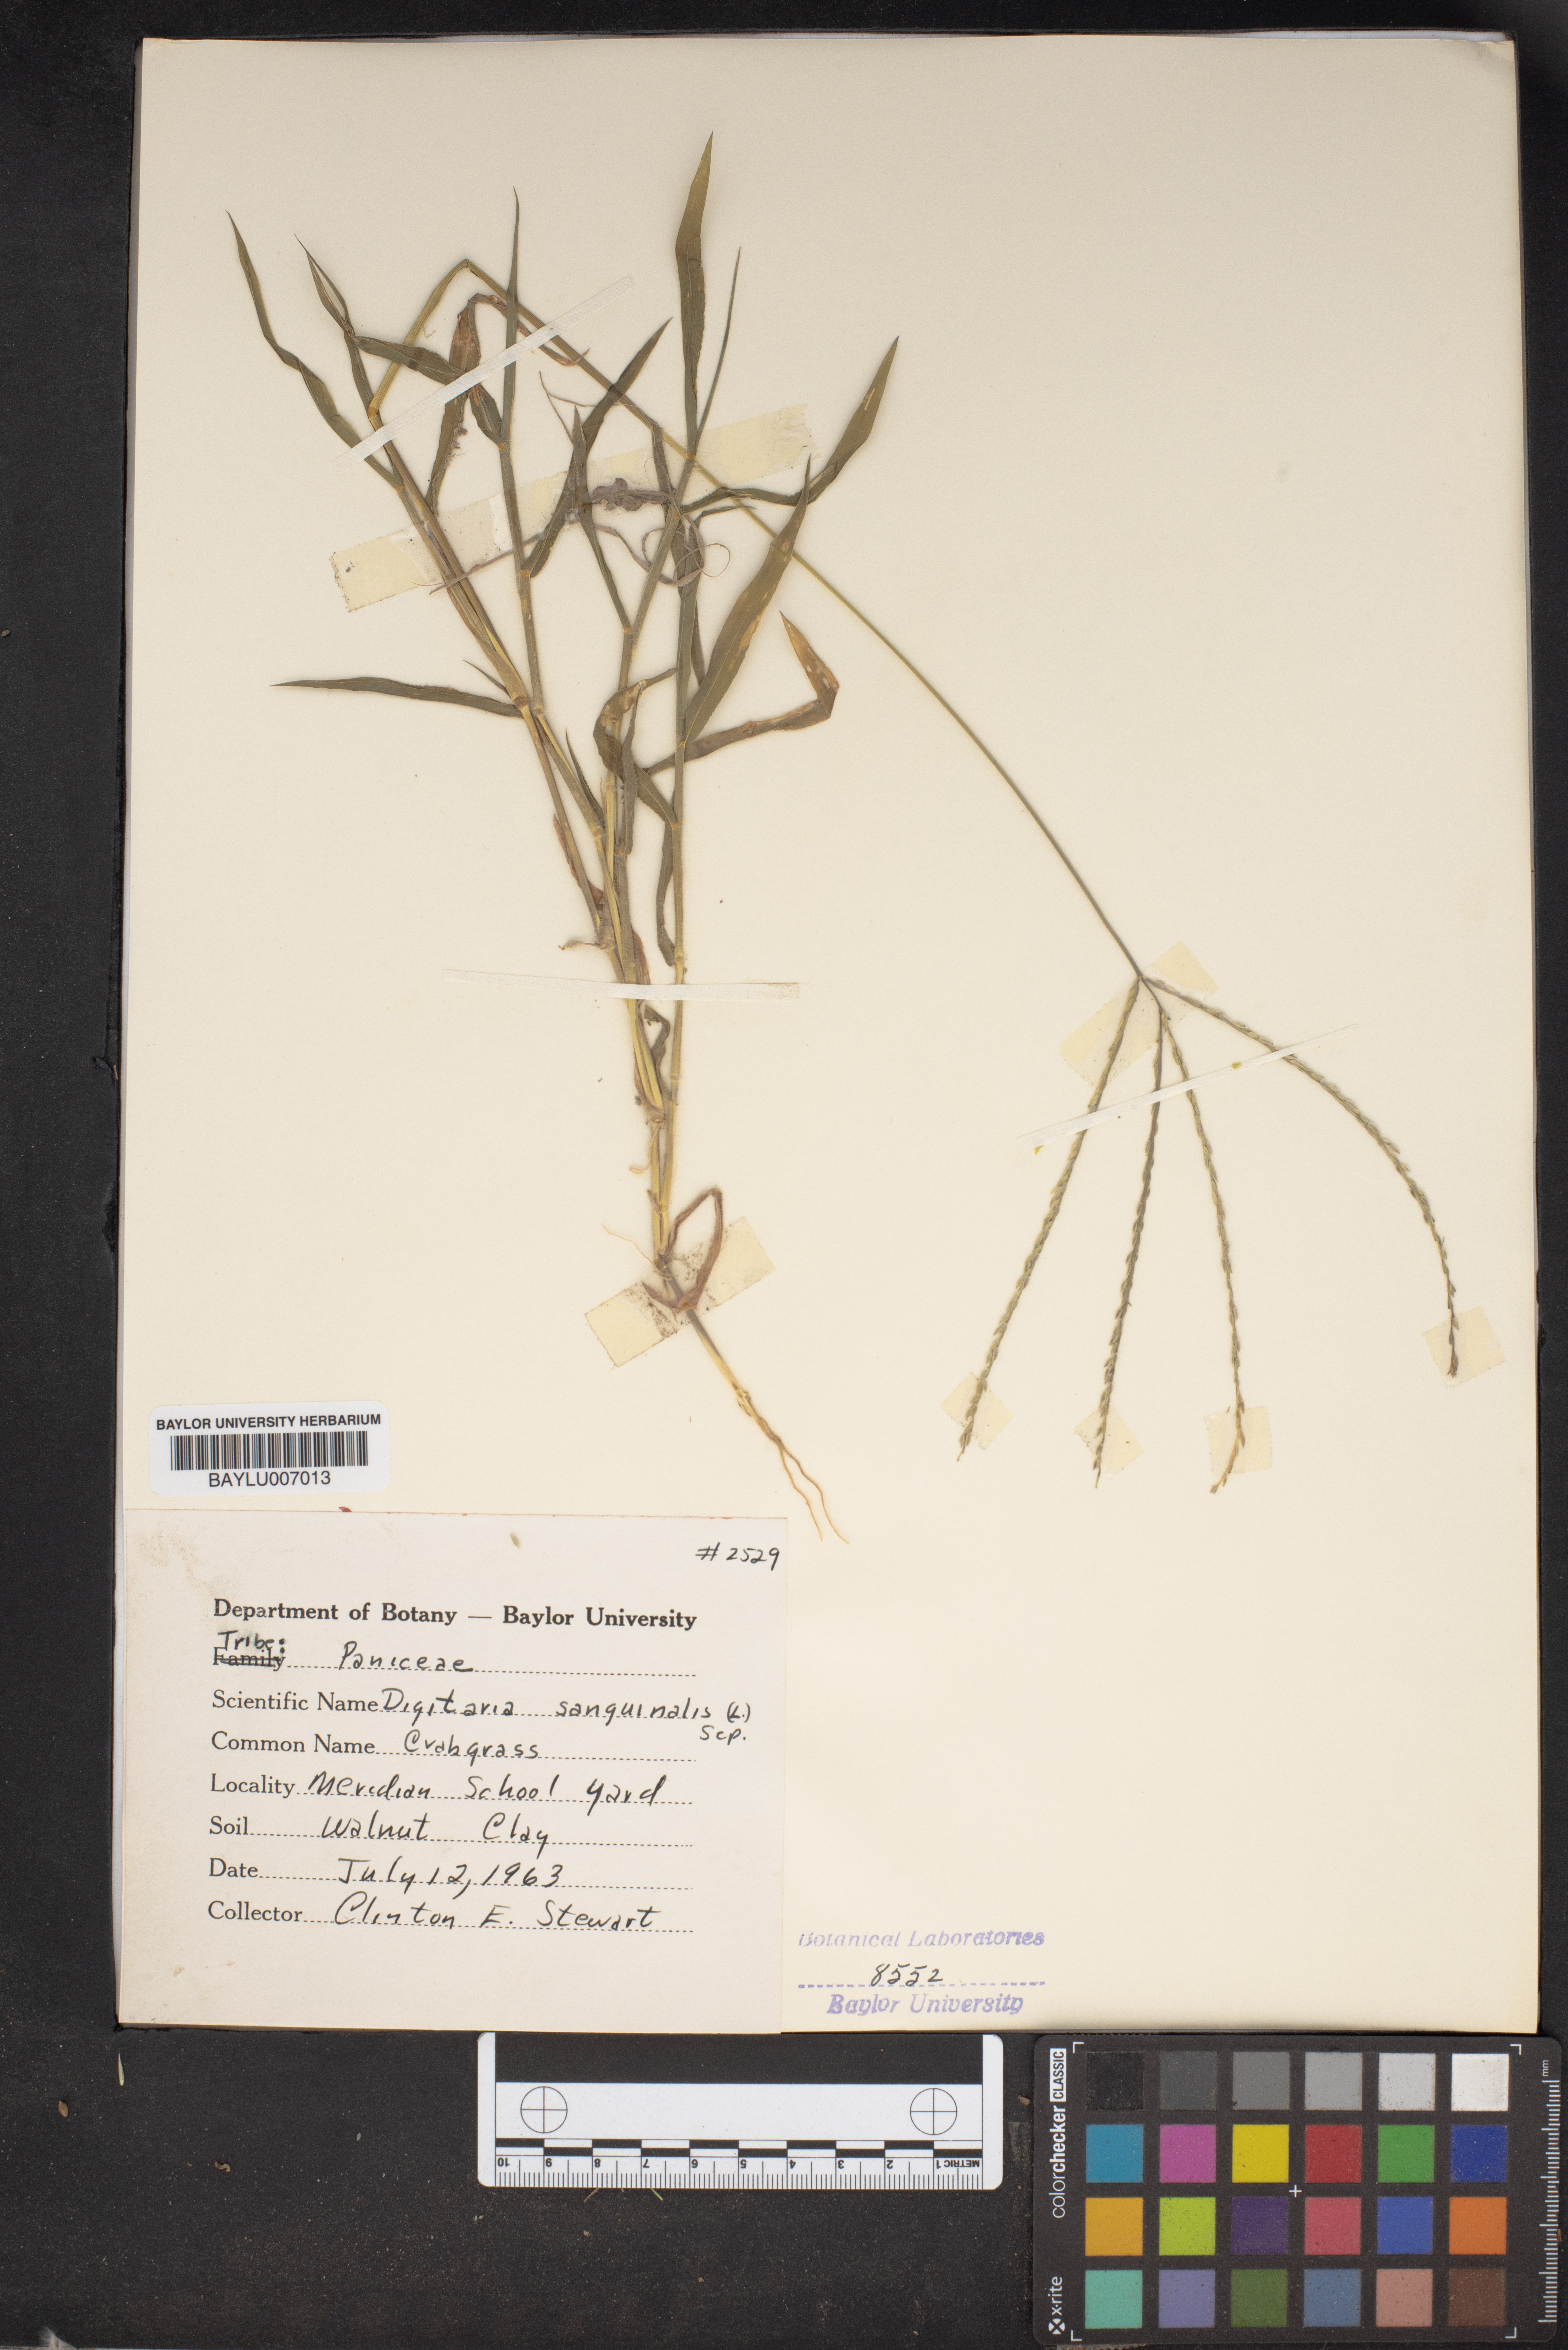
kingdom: Plantae
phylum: Tracheophyta
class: Liliopsida
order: Poales
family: Poaceae
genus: Digitaria
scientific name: Digitaria sanguinalis
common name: Hairy crabgrass
